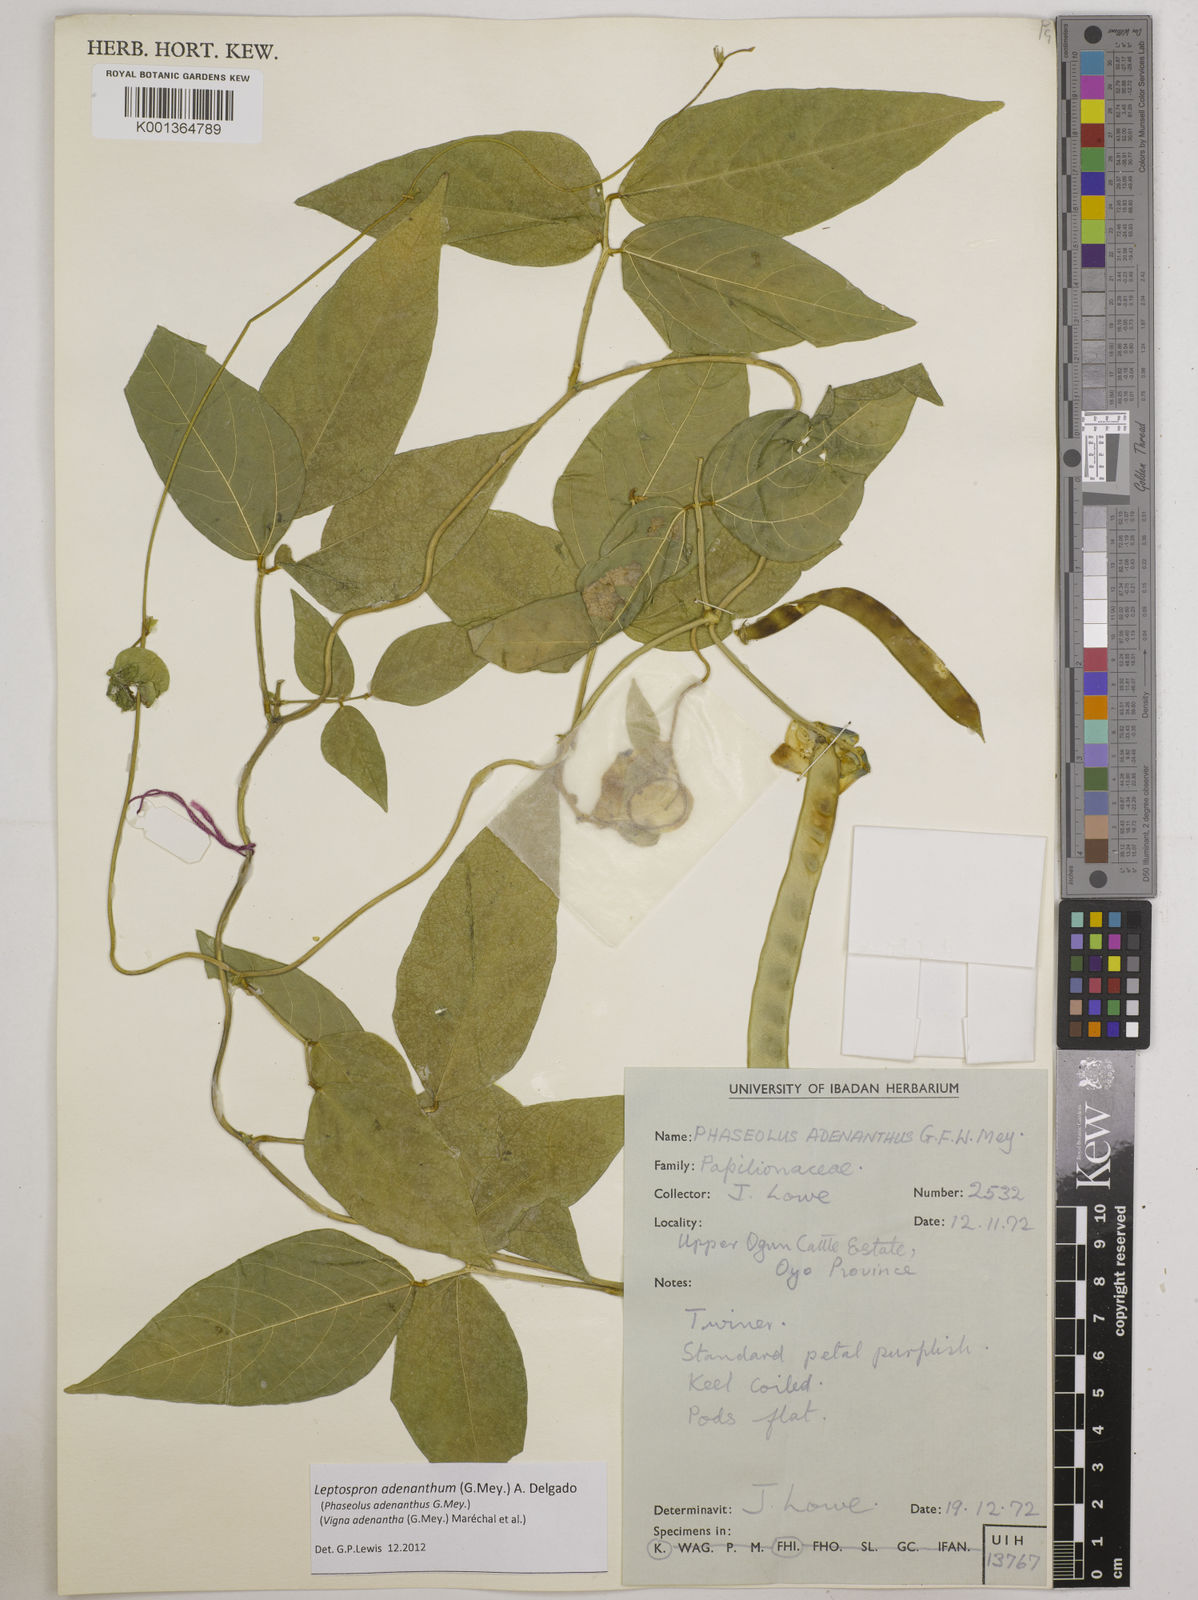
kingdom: Plantae
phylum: Tracheophyta
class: Magnoliopsida
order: Fabales
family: Fabaceae
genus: Leptospron
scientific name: Leptospron adenanthum
